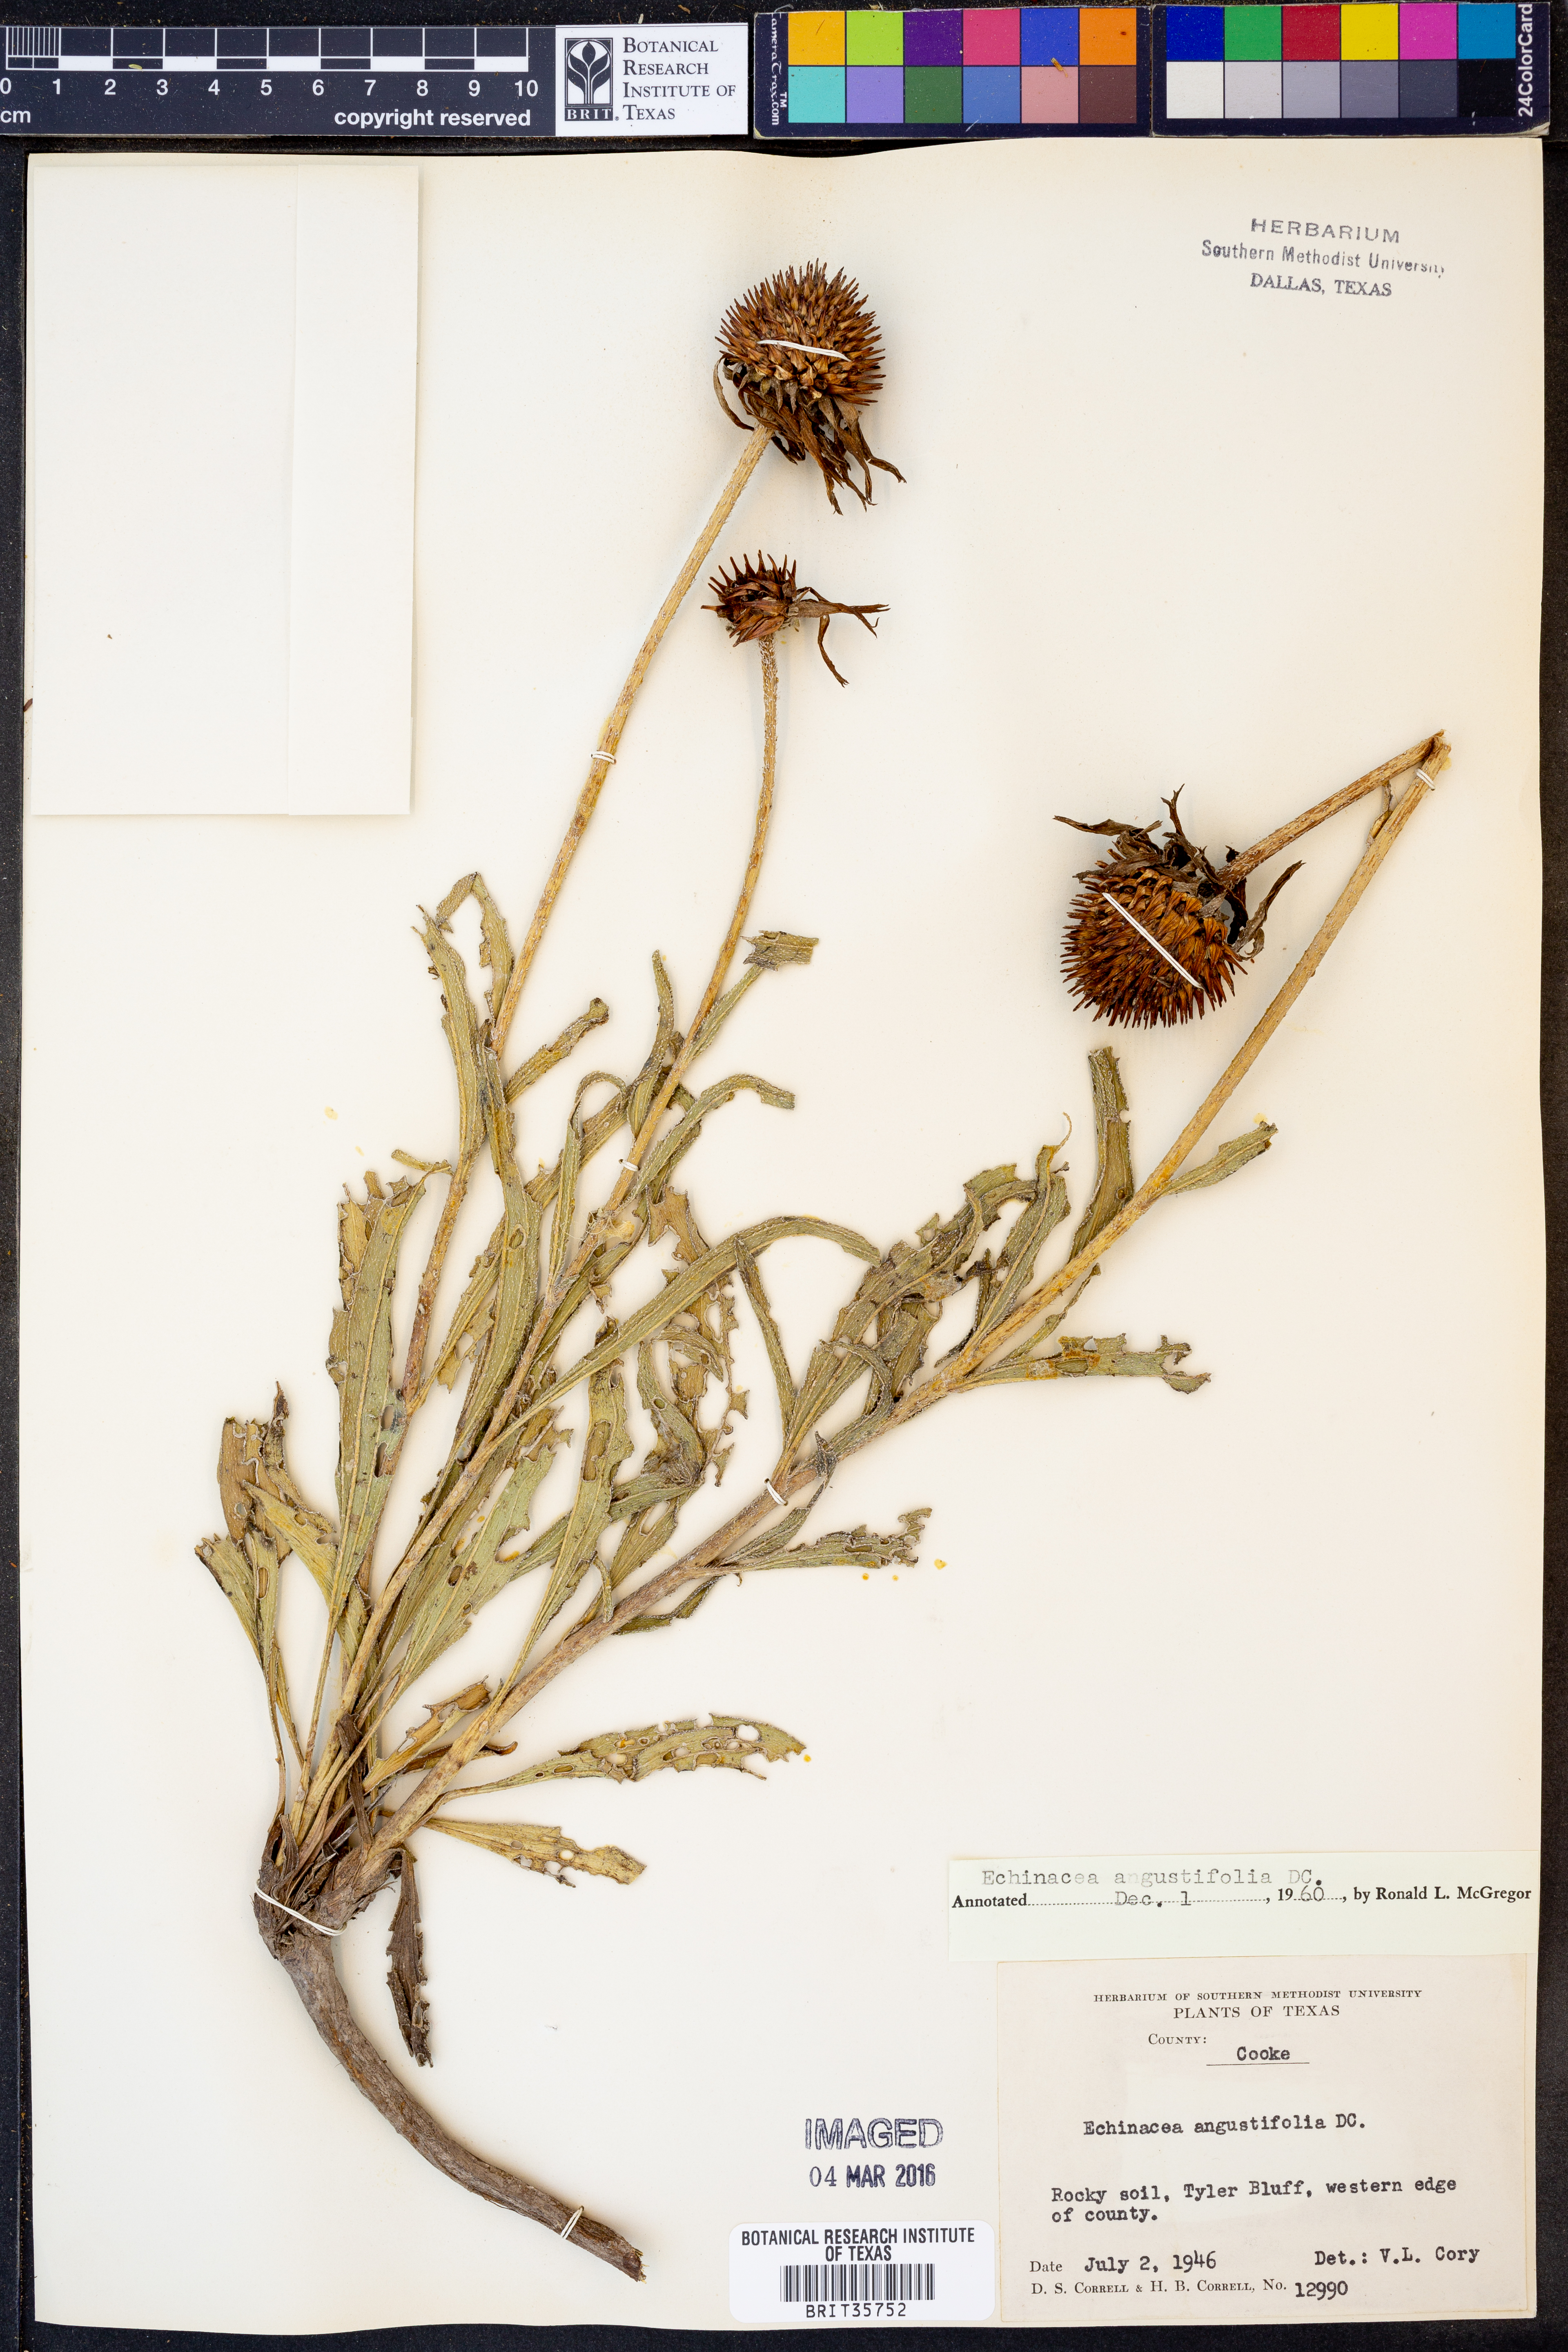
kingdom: Plantae
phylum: Tracheophyta
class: Magnoliopsida
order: Asterales
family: Asteraceae
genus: Echinacea
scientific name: Echinacea angustifolia
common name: Black-sampson echinacea
